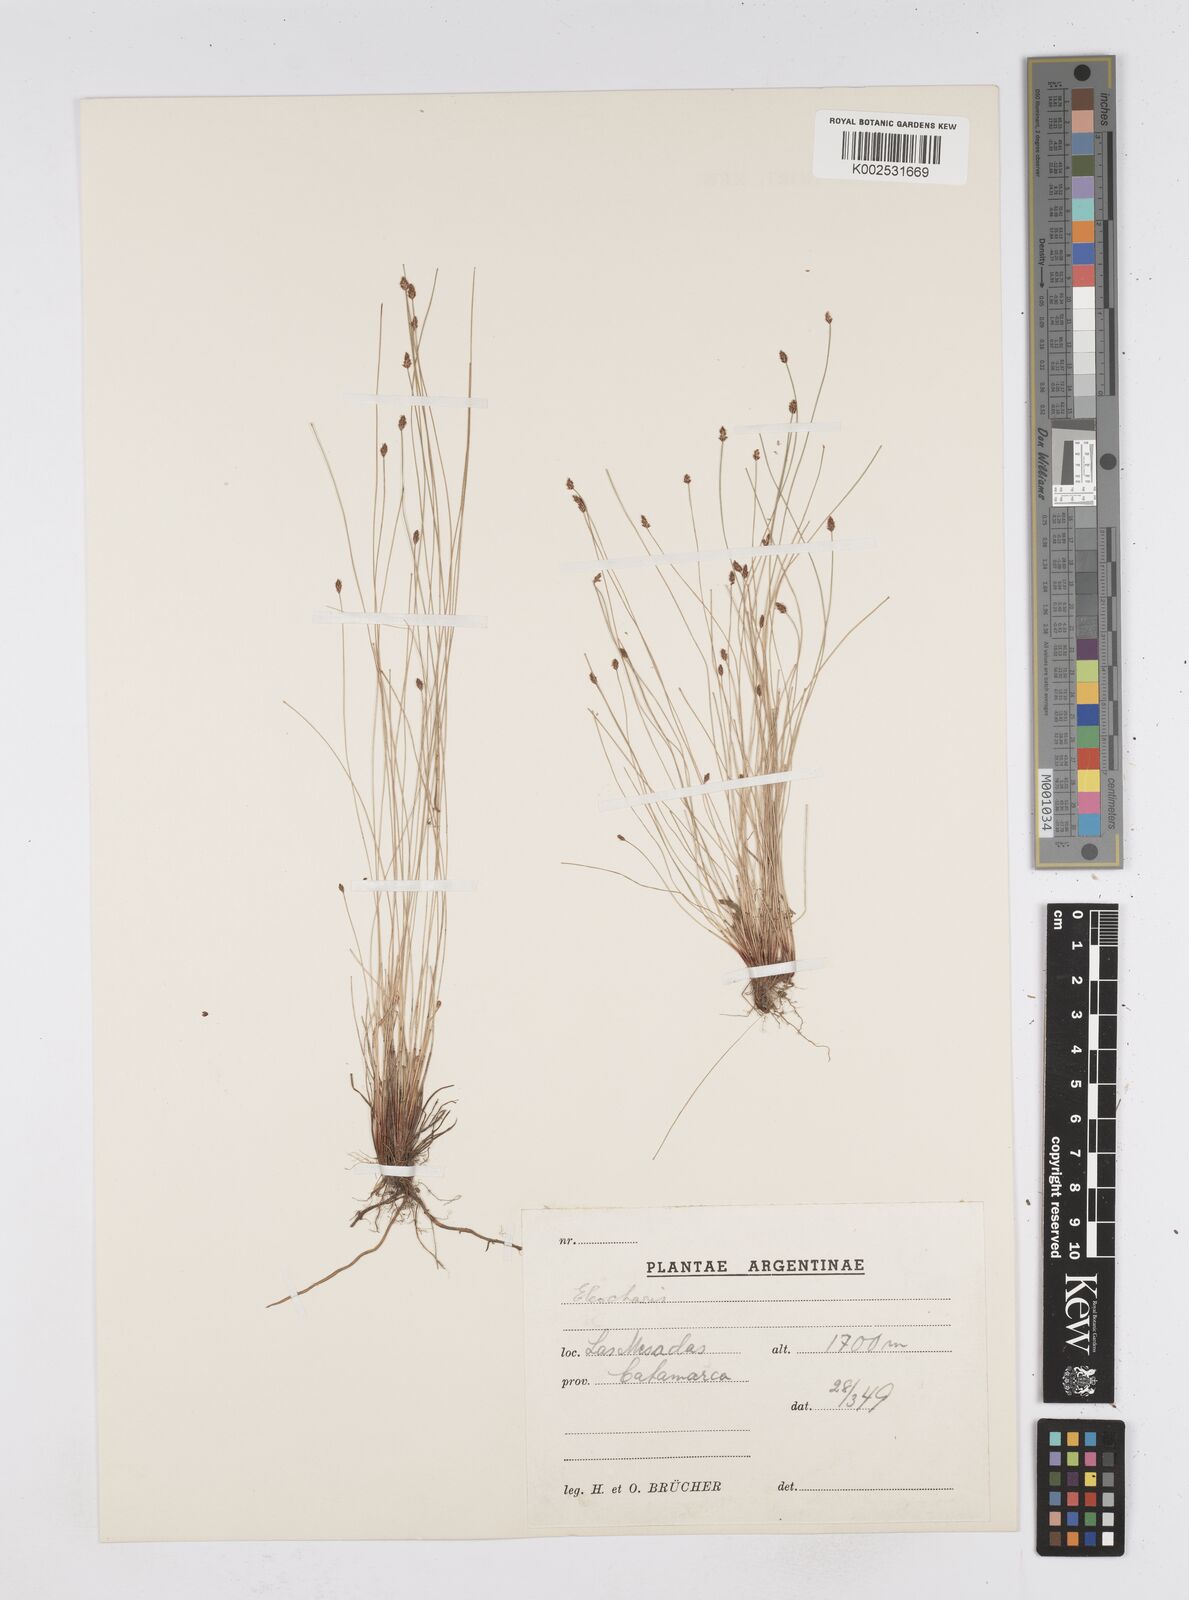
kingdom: Plantae
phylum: Tracheophyta
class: Liliopsida
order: Poales
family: Cyperaceae
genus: Eleocharis
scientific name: Eleocharis
